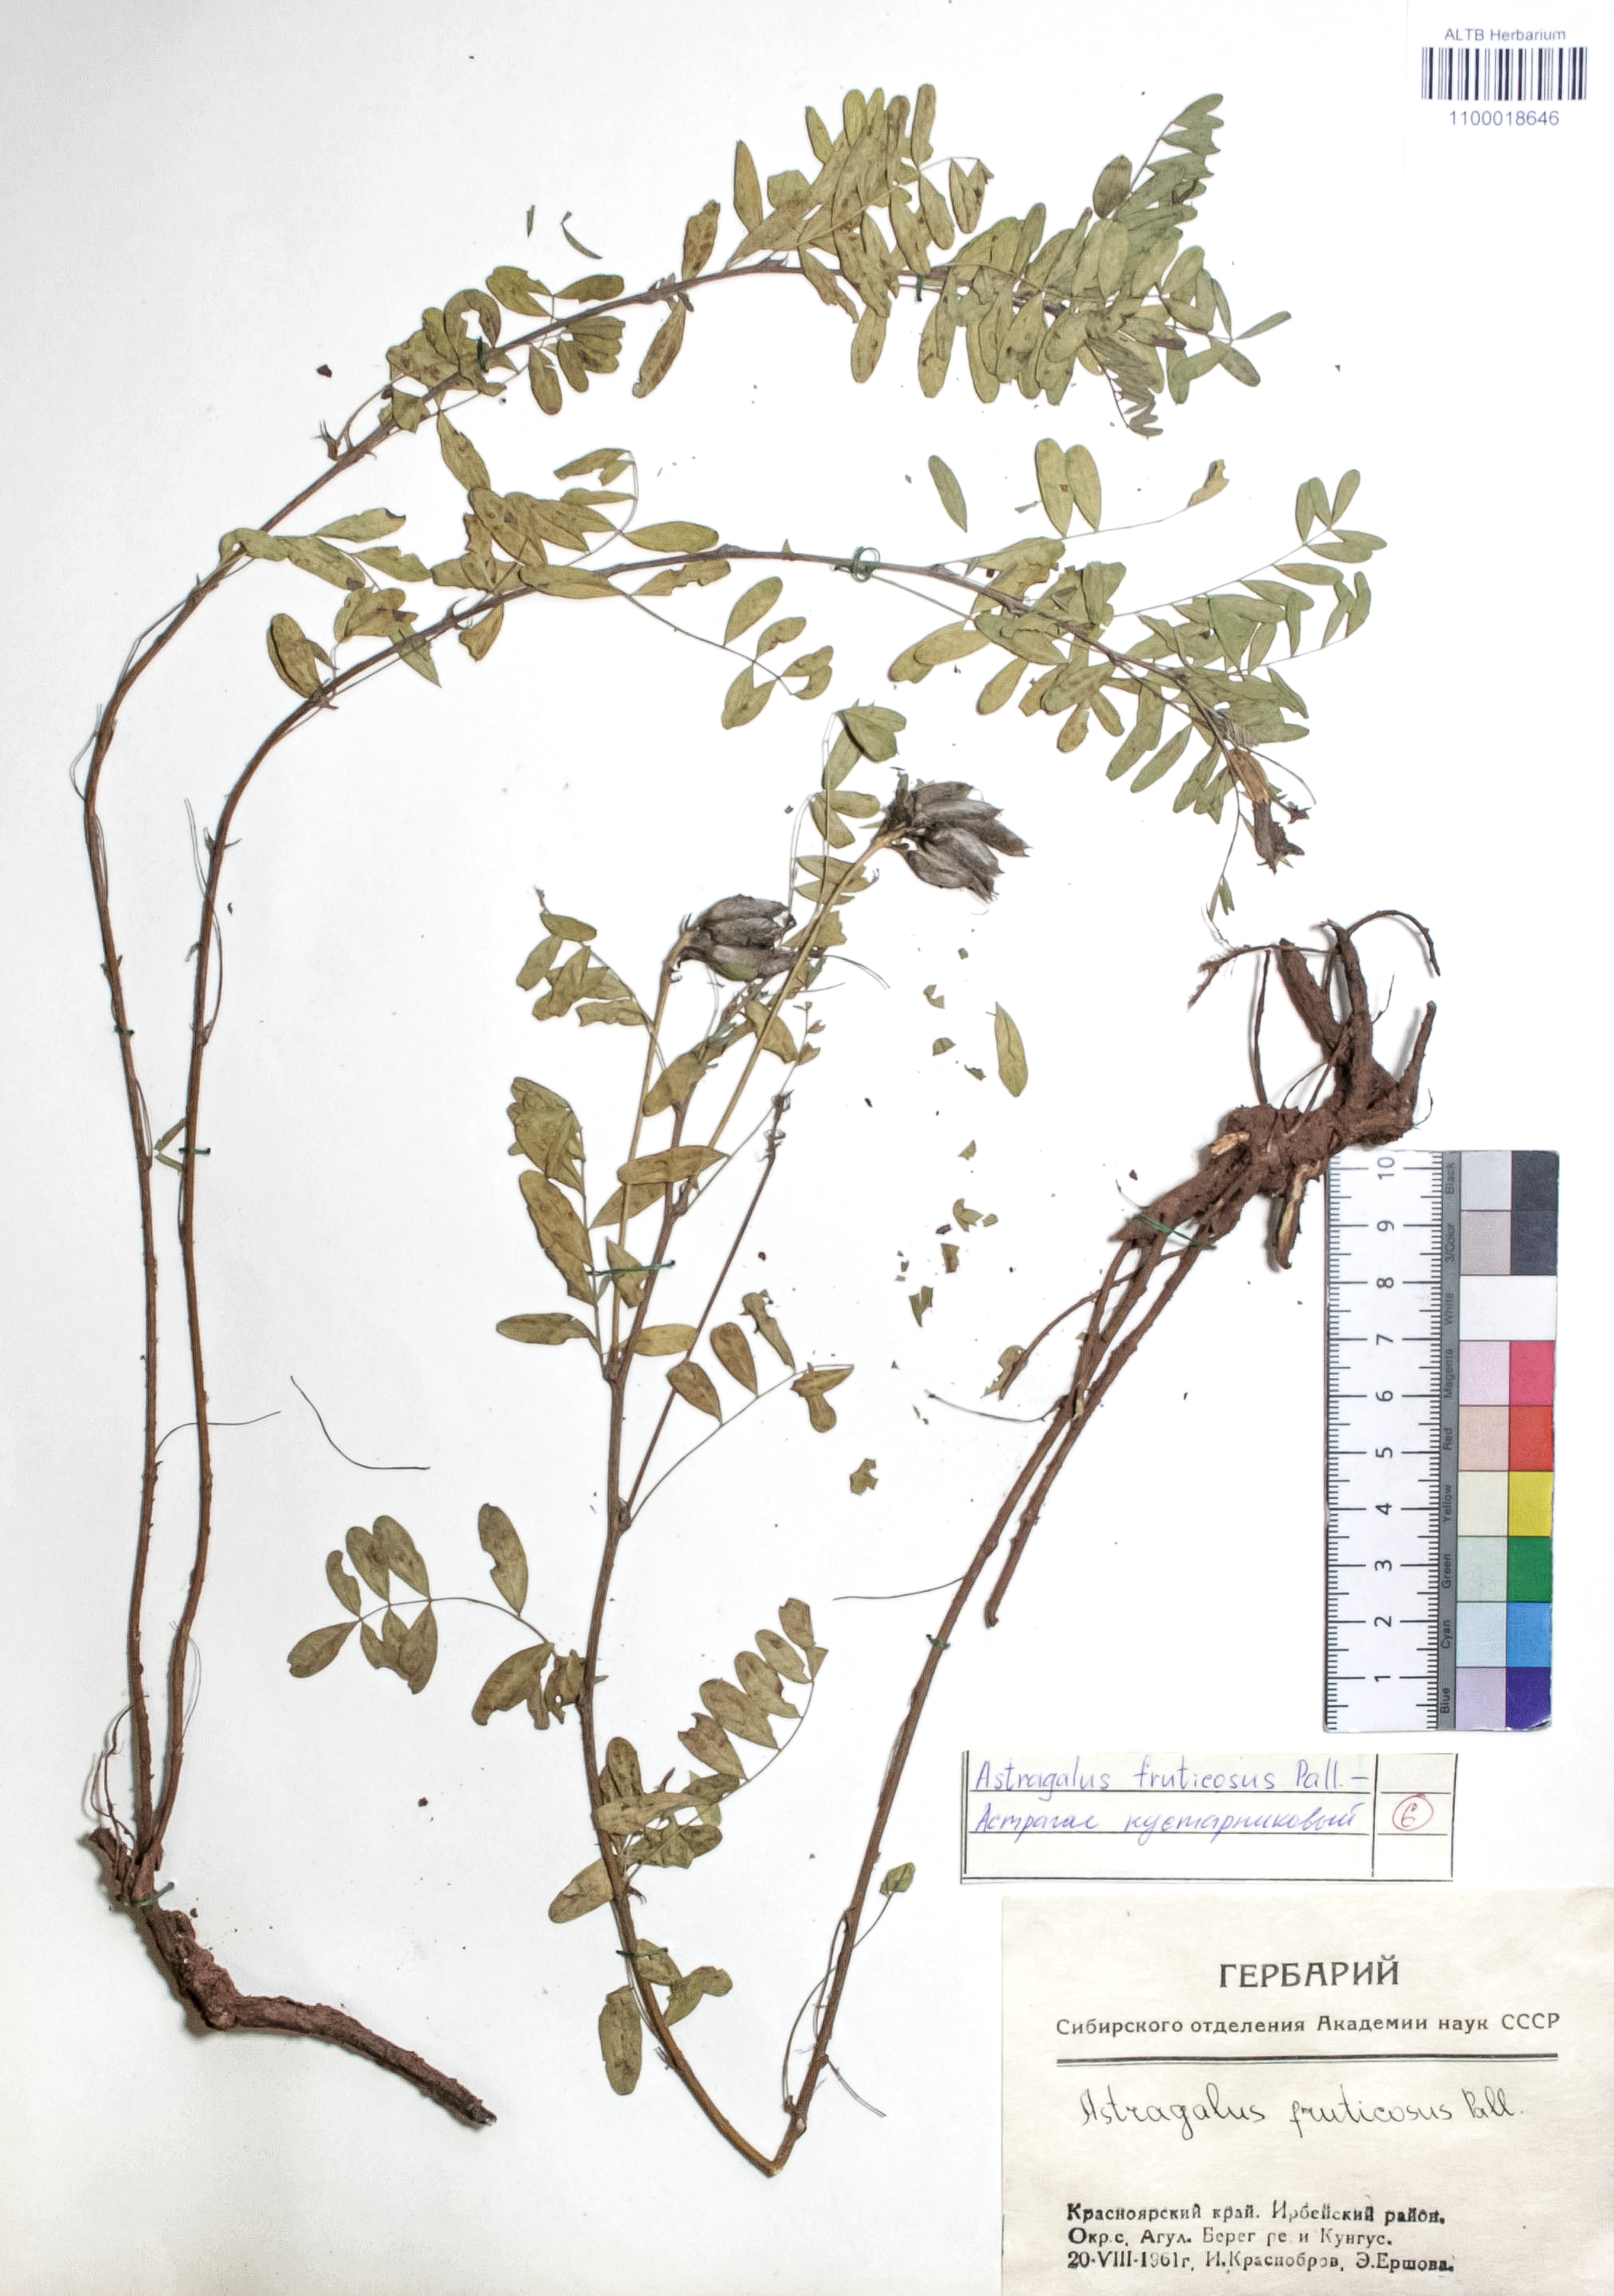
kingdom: Plantae
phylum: Tracheophyta
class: Magnoliopsida
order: Fabales
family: Fabaceae
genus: Astragalus
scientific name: Astragalus syriacus
